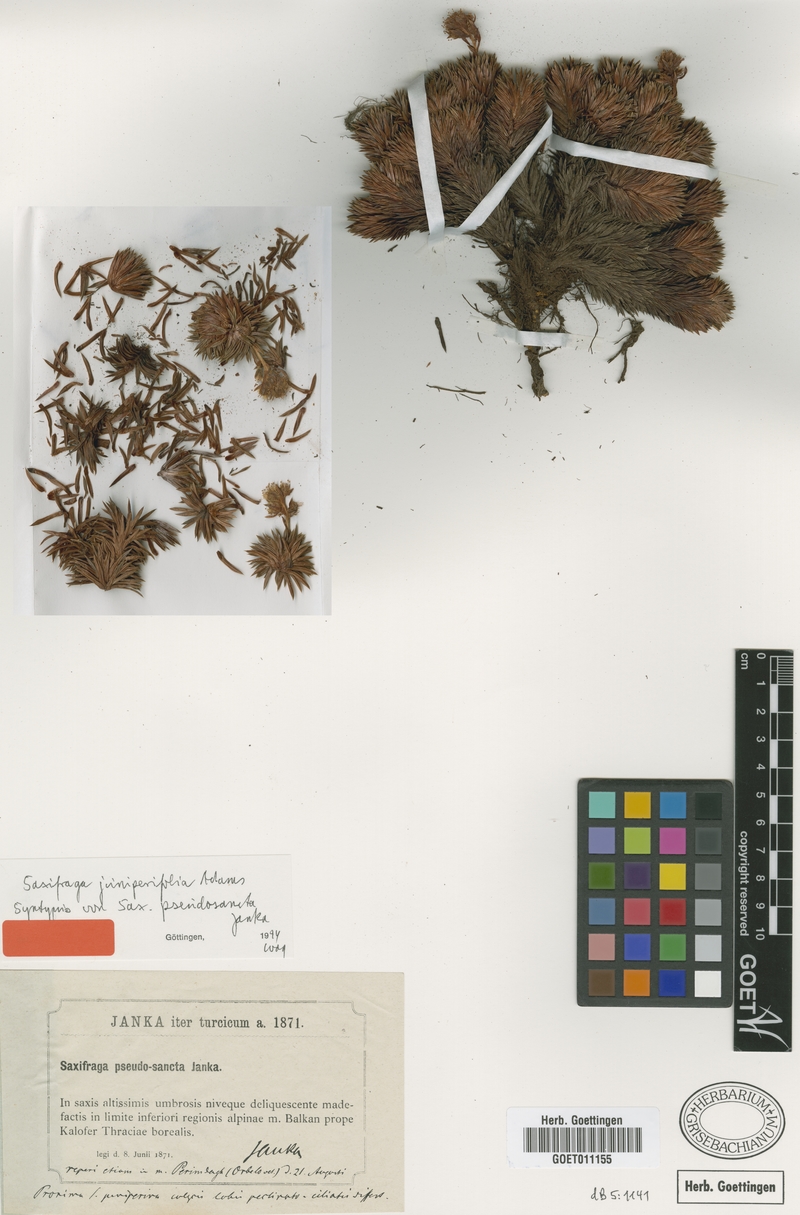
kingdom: Plantae
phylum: Tracheophyta
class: Magnoliopsida
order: Saxifragales
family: Saxifragaceae
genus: Saxifraga
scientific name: Saxifraga juniperifolia
